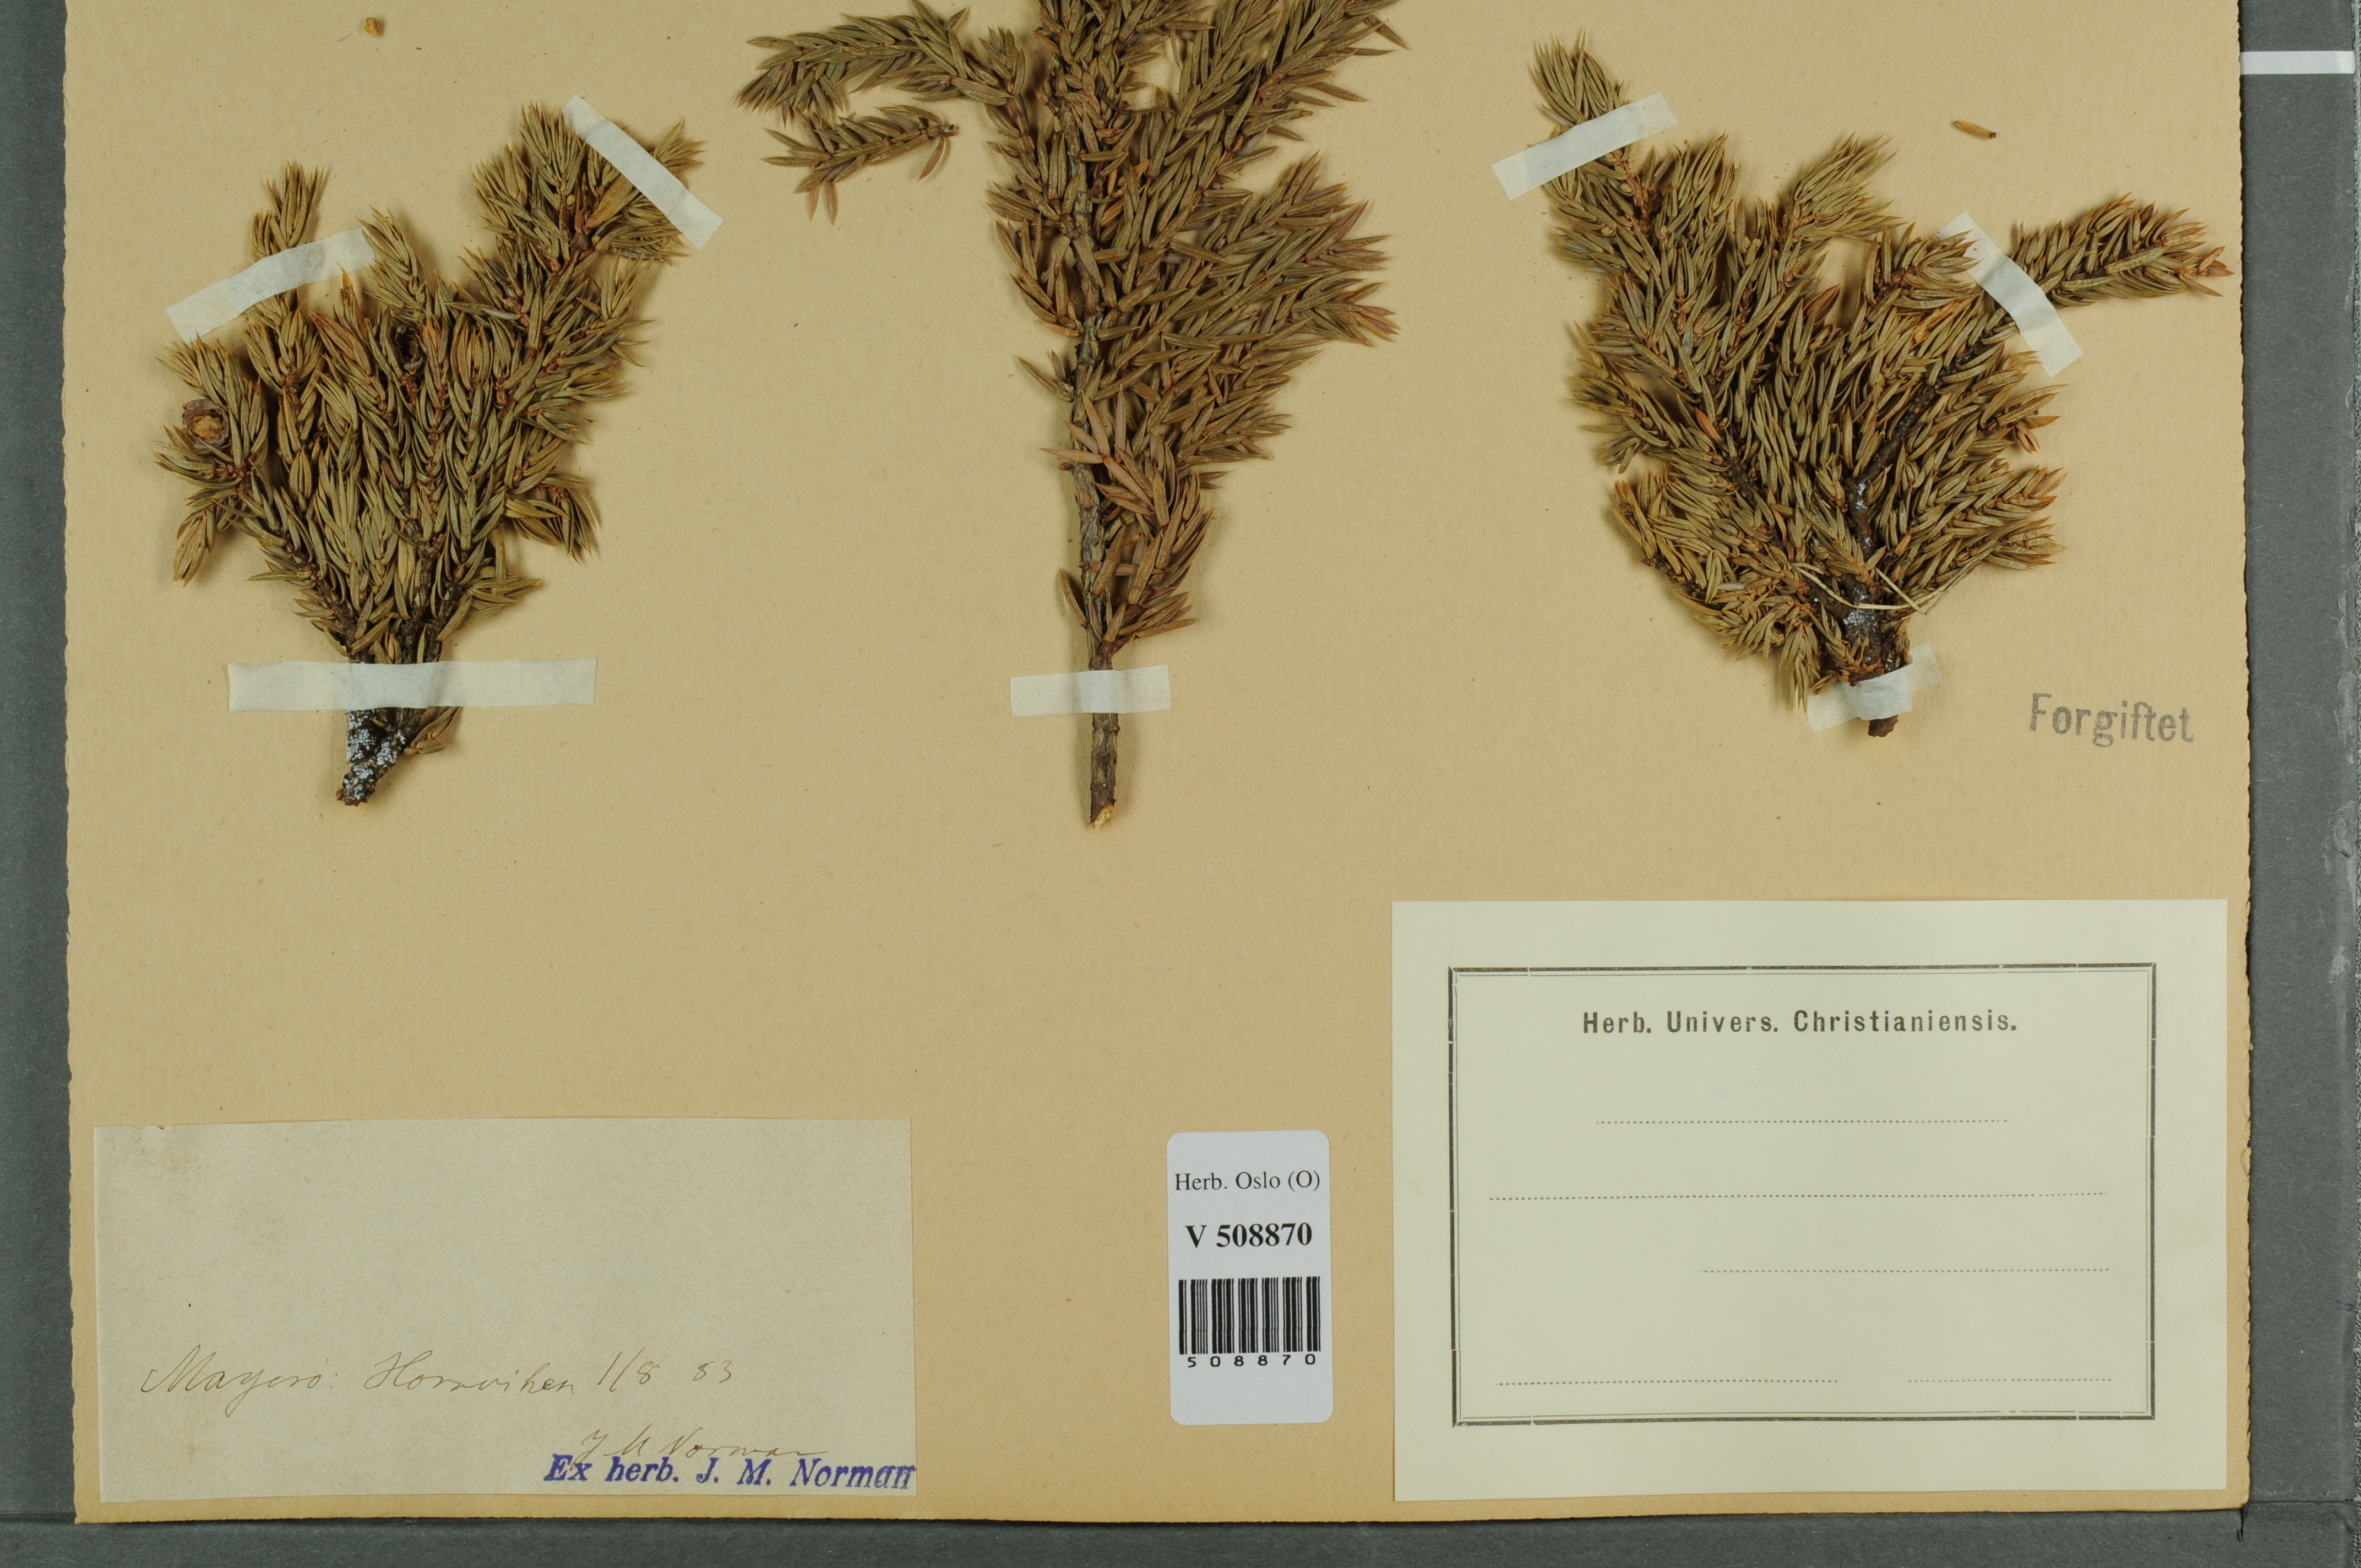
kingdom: Plantae
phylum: Tracheophyta
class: Pinopsida
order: Pinales
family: Cupressaceae
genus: Juniperus
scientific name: Juniperus communis
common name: Common juniper
